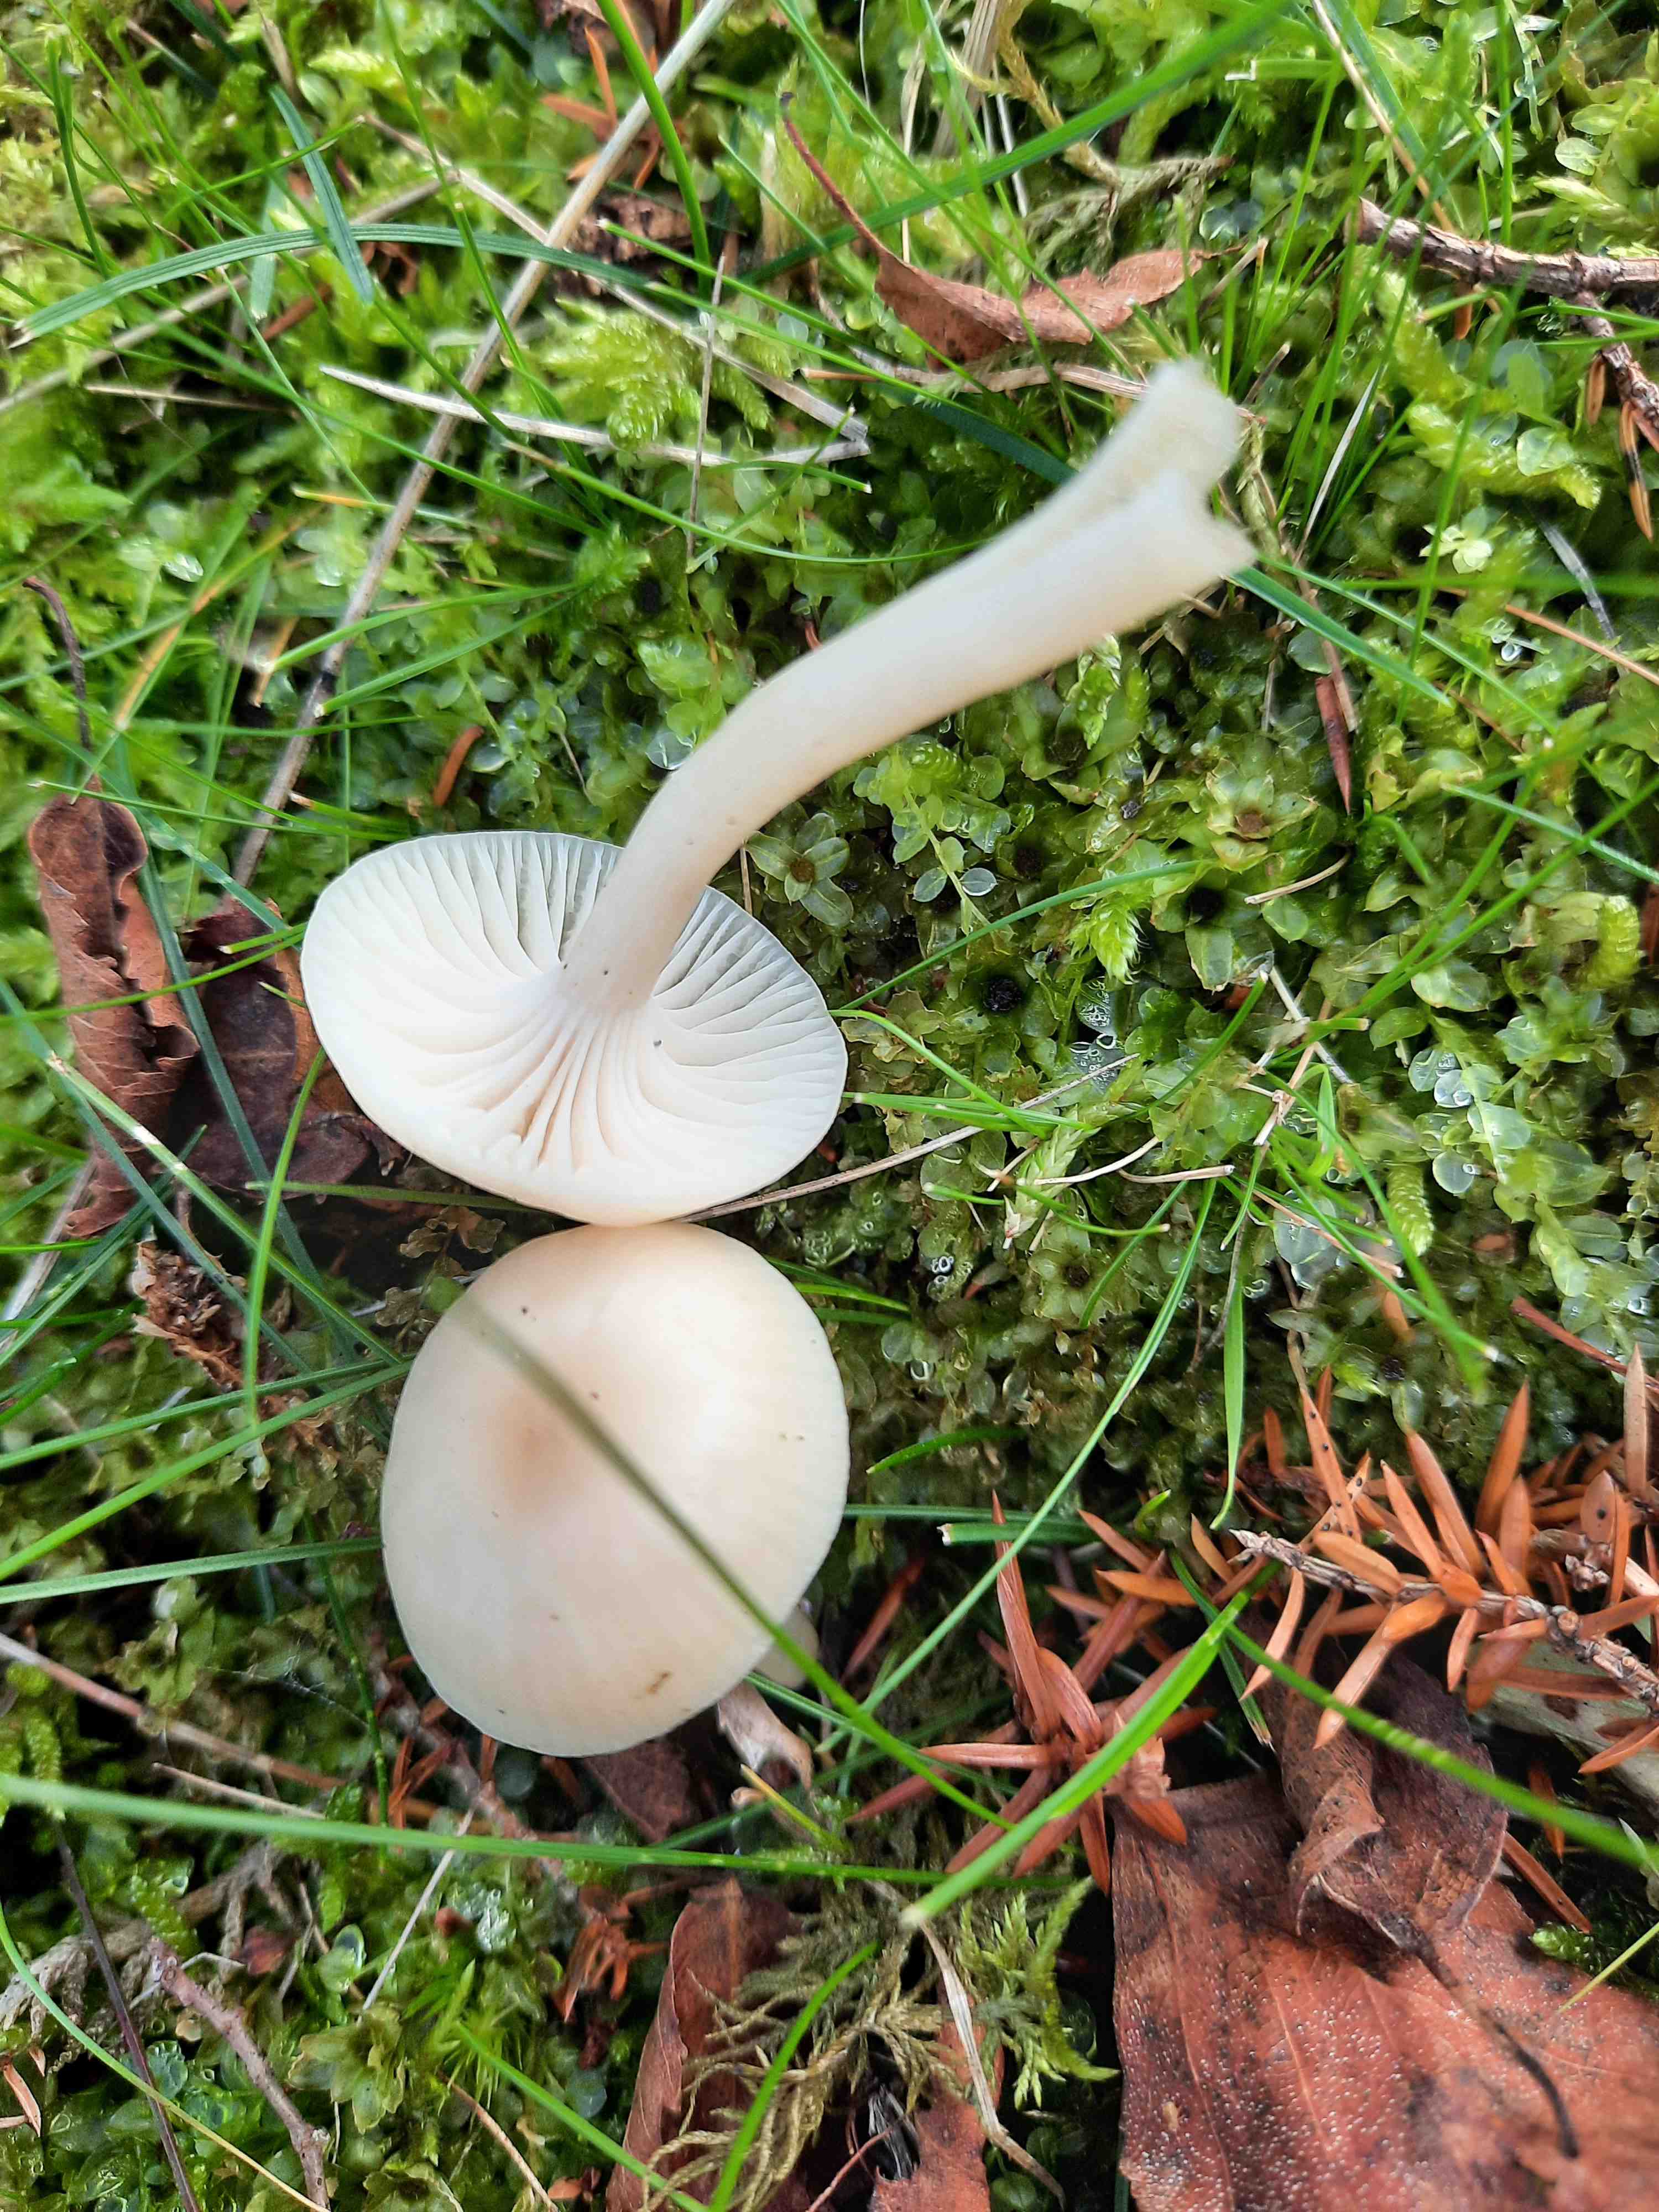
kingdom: Fungi
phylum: Basidiomycota
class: Agaricomycetes
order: Agaricales
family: Hygrophoraceae
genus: Cuphophyllus
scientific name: Cuphophyllus russocoriaceus
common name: ruslæder-vokshat
